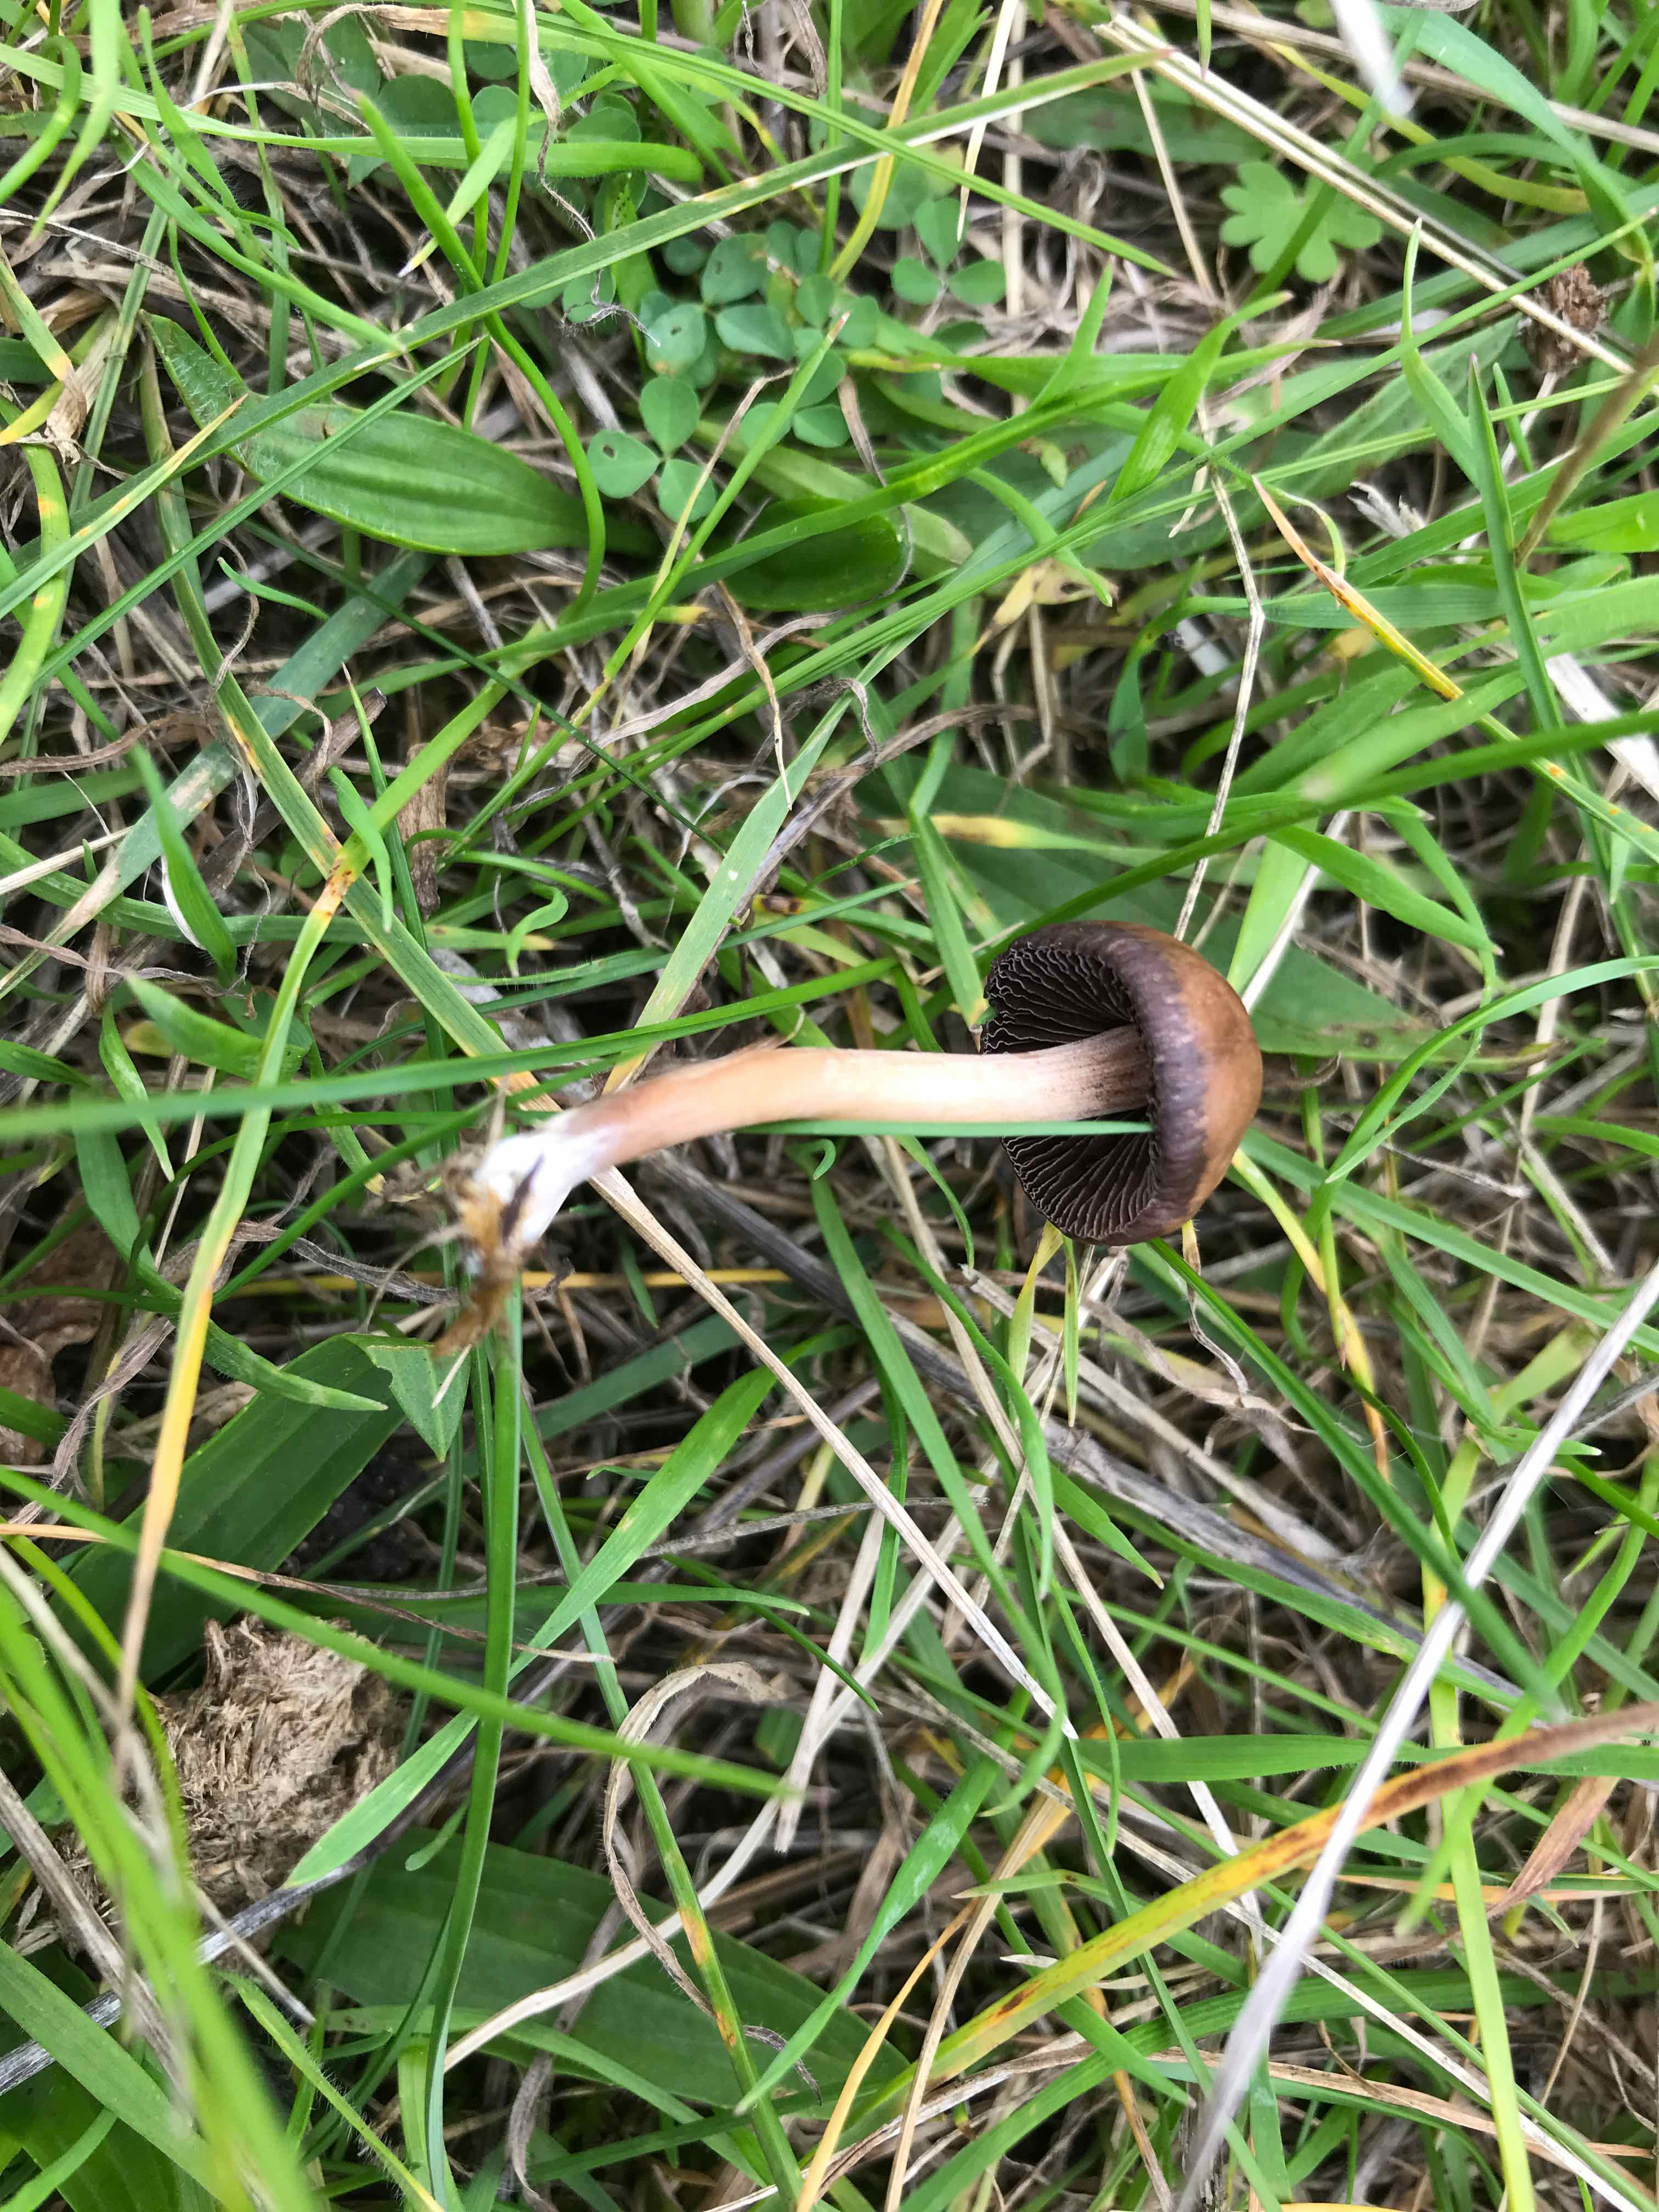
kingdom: Fungi
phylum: Basidiomycota
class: Agaricomycetes
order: Agaricales
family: Psathyrellaceae
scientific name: Psathyrellaceae
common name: mørkhatfamilien
